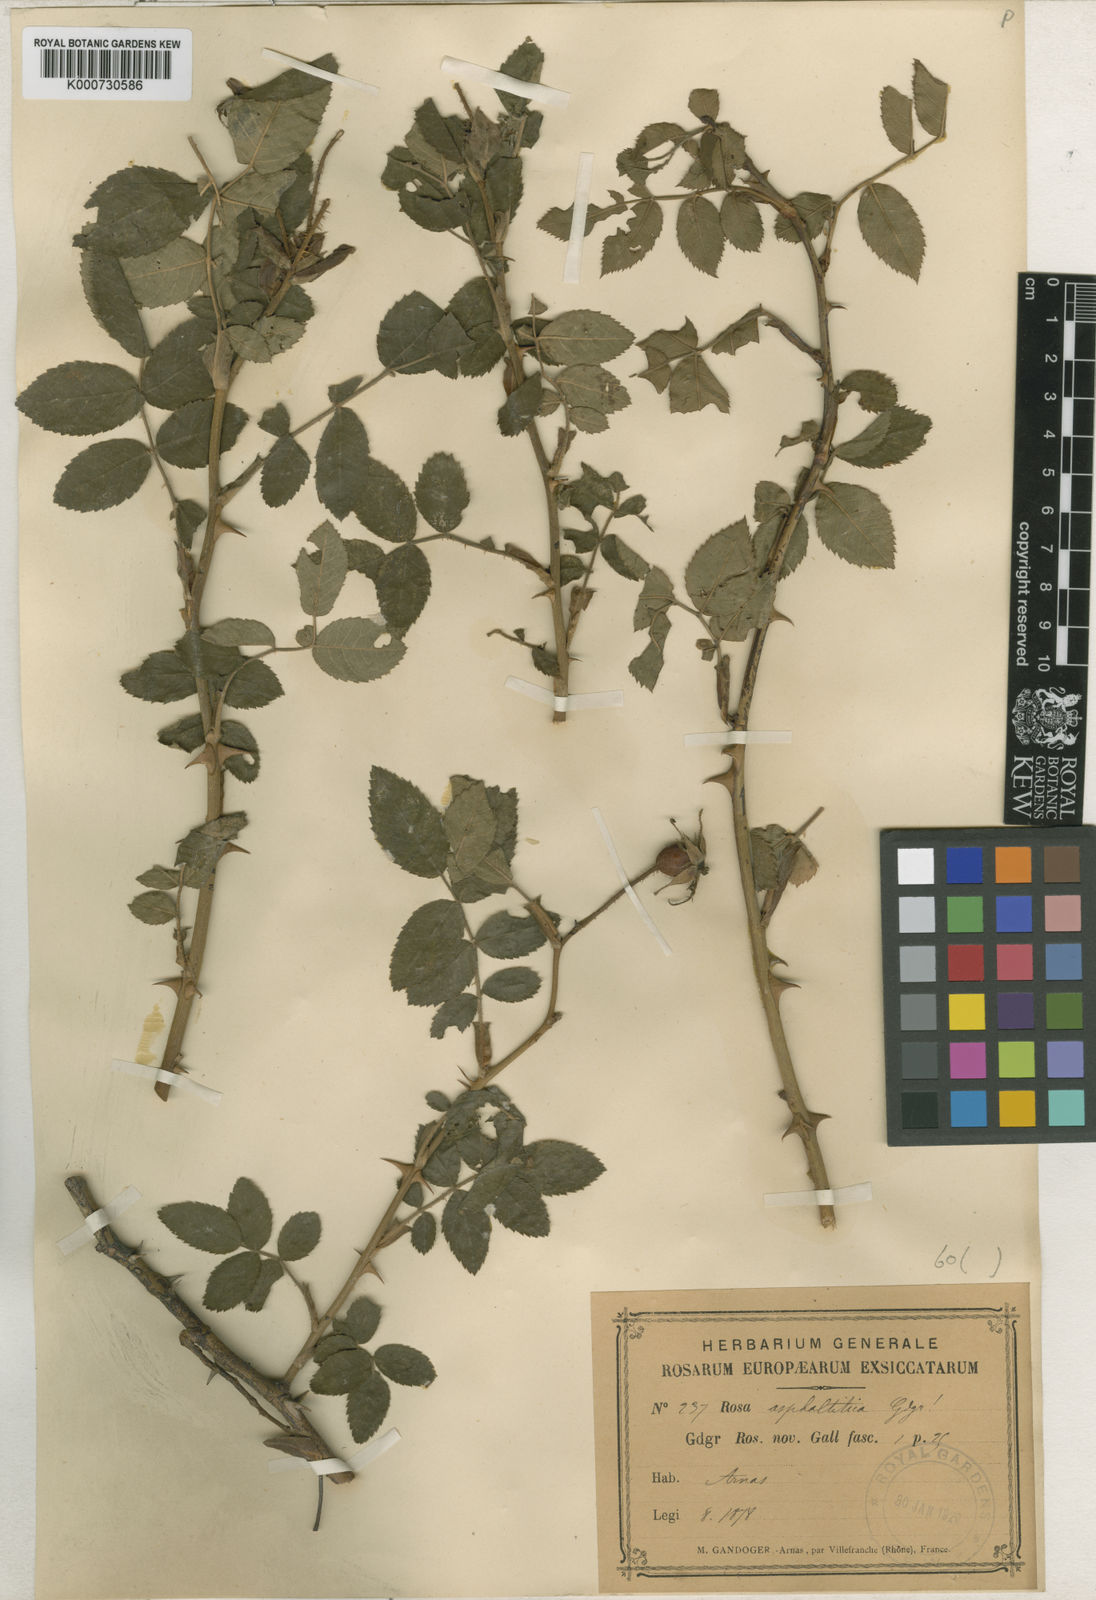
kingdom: Plantae
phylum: Tracheophyta
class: Magnoliopsida
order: Rosales
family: Rosaceae
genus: Rosa
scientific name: Rosa tomentosa
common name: Downy rose
